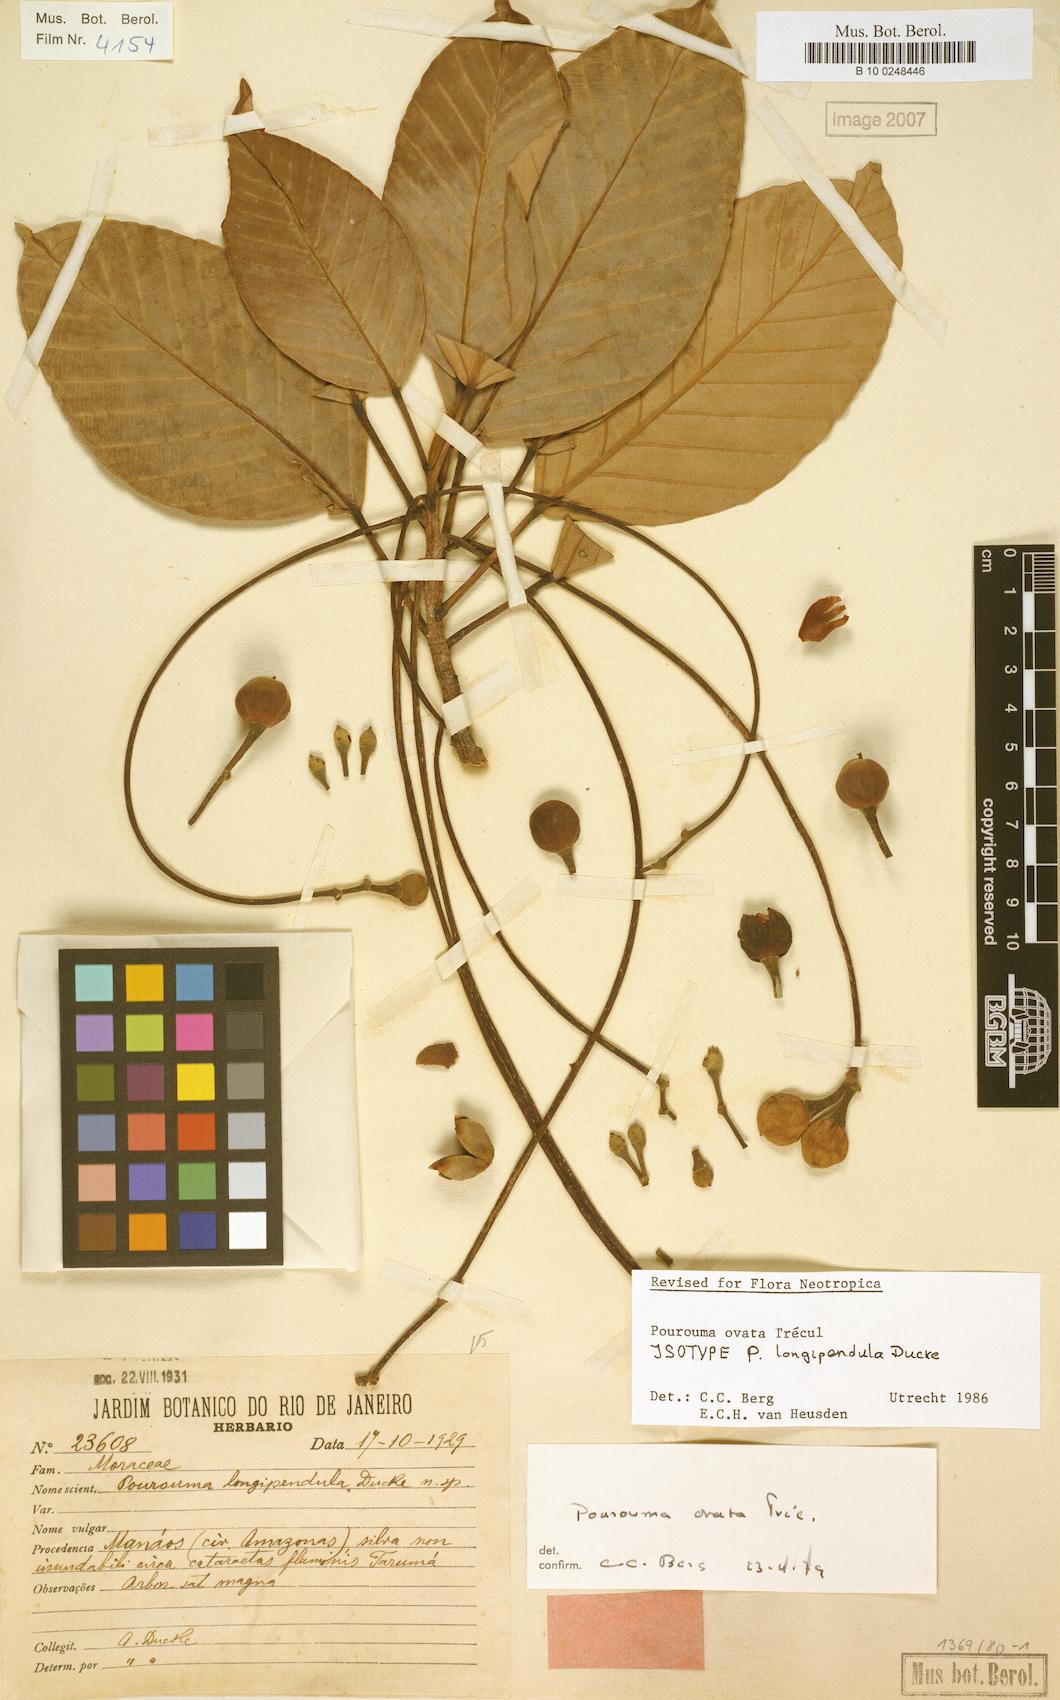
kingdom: Plantae
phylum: Tracheophyta
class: Magnoliopsida
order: Rosales
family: Urticaceae
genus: Pourouma
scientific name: Pourouma ovata
